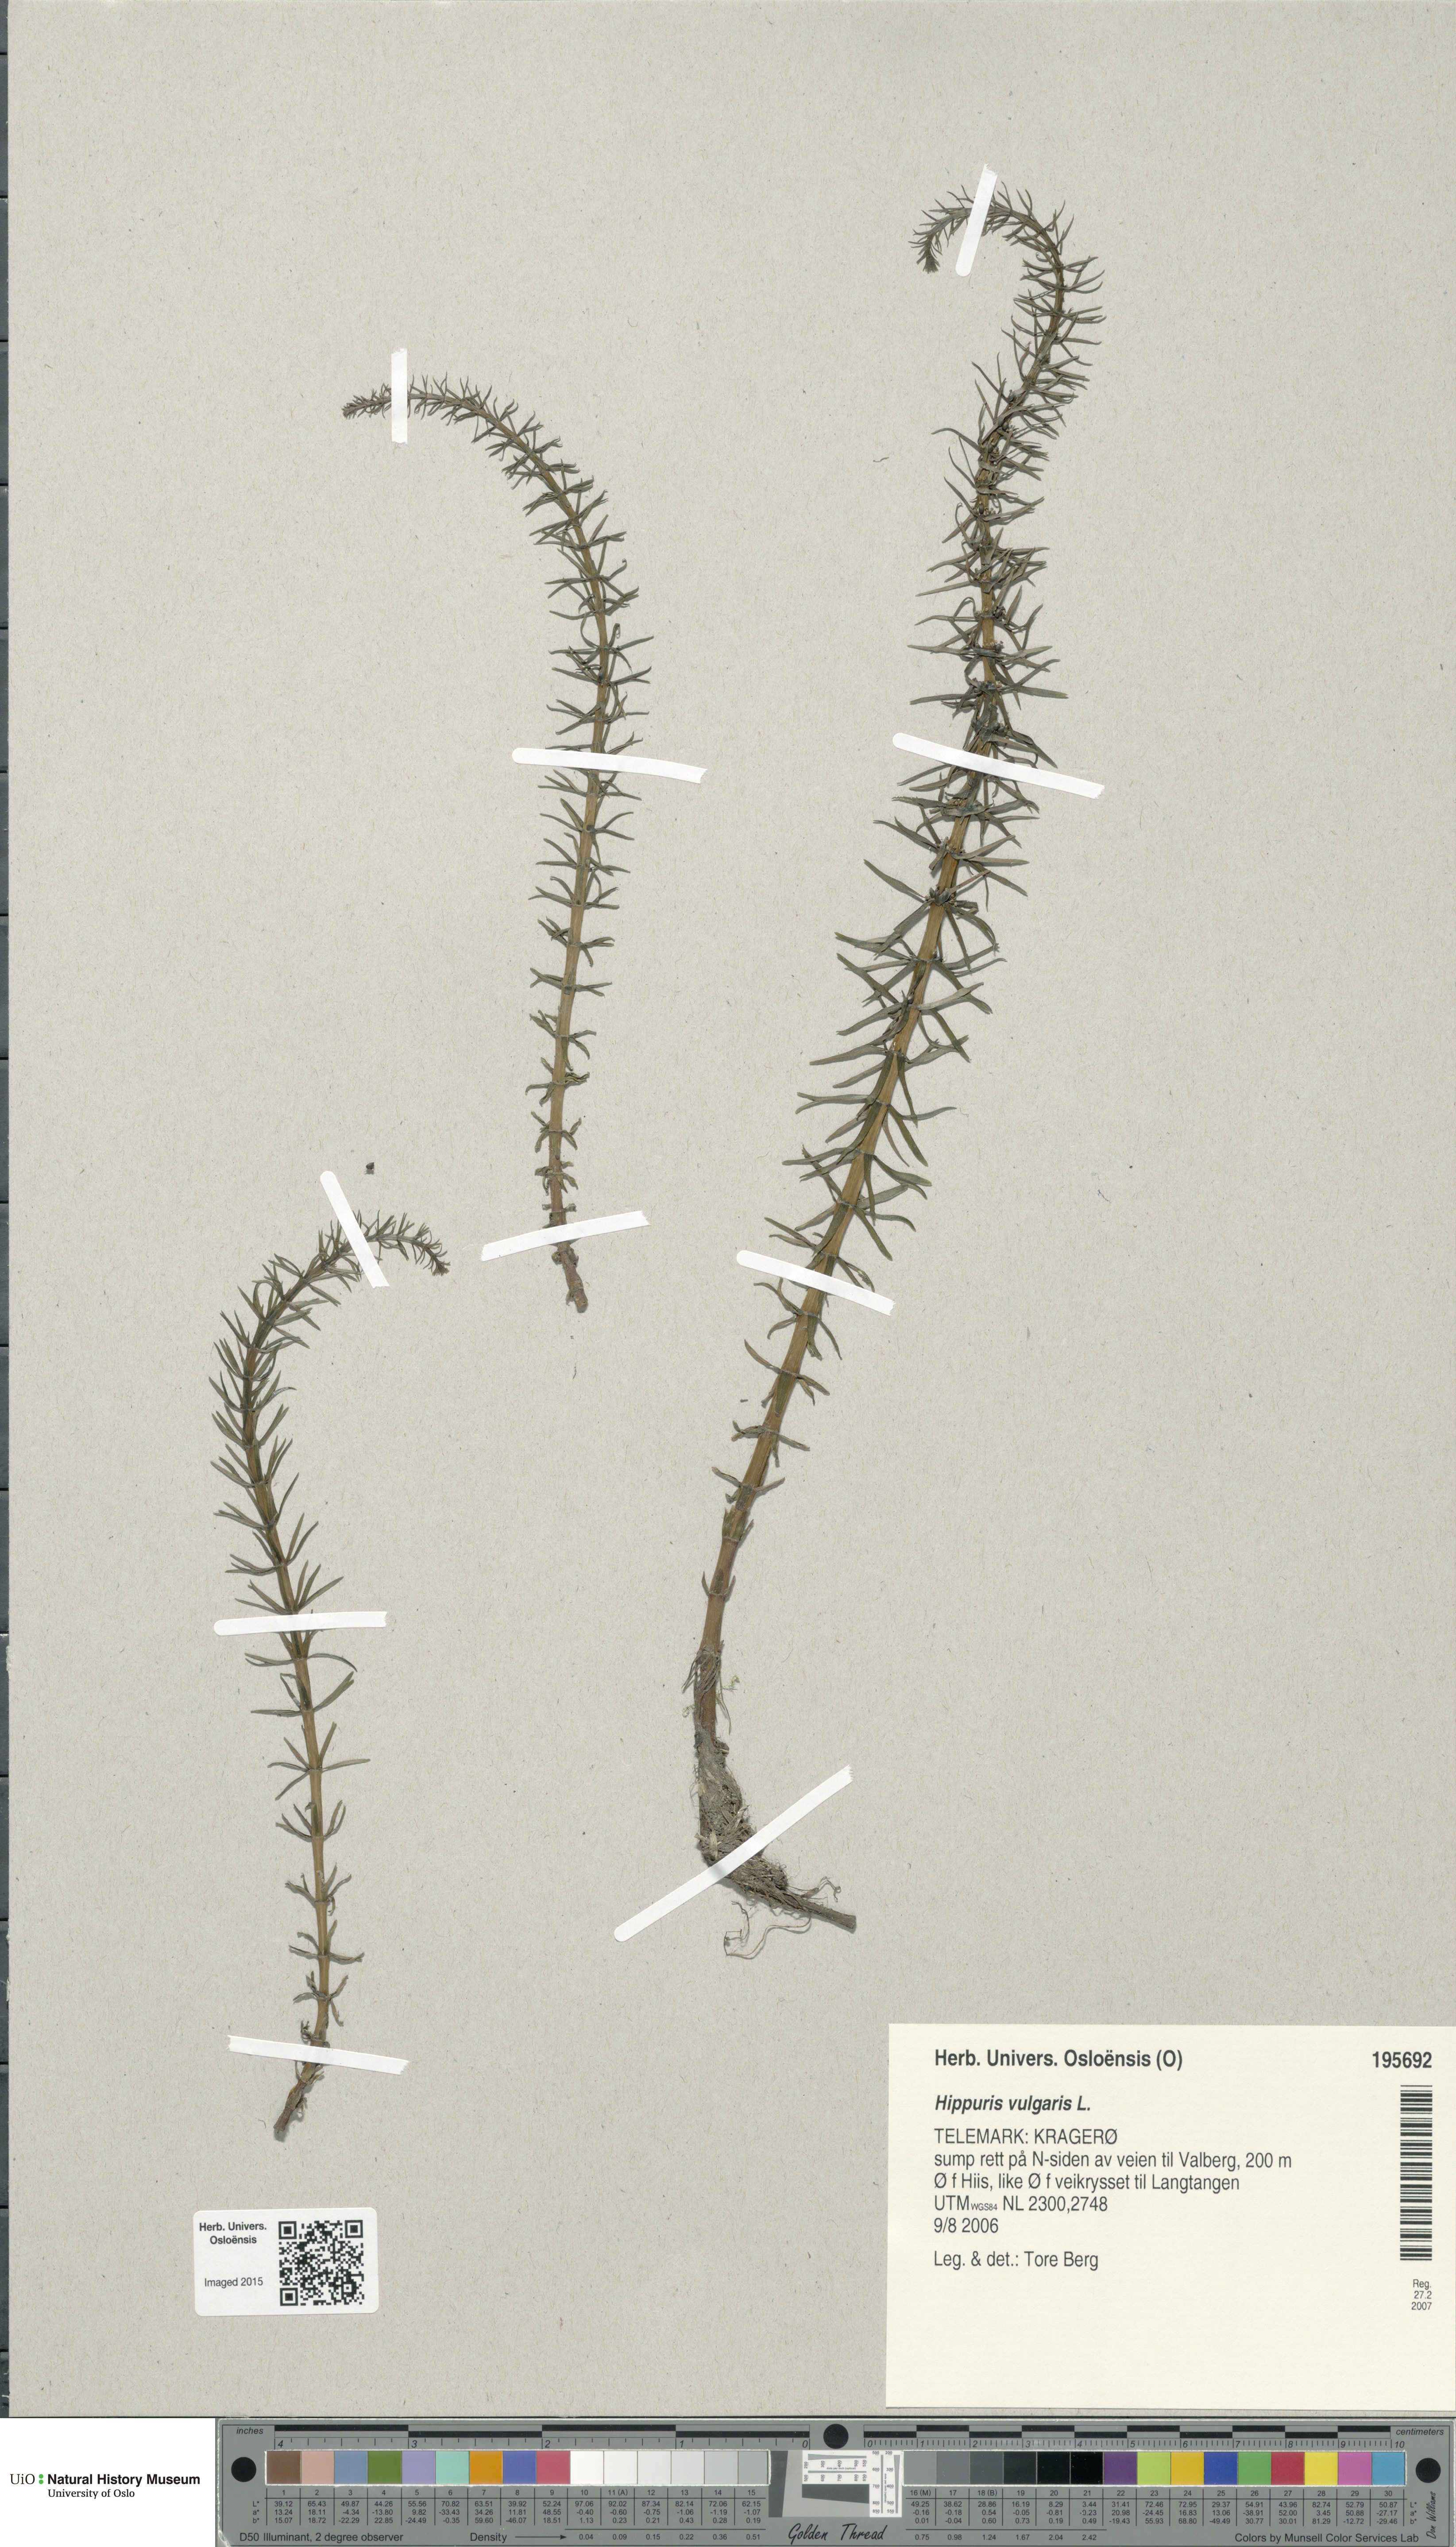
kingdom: Plantae
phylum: Tracheophyta
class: Magnoliopsida
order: Lamiales
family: Plantaginaceae
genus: Hippuris
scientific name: Hippuris vulgaris
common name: Mare's-tail
